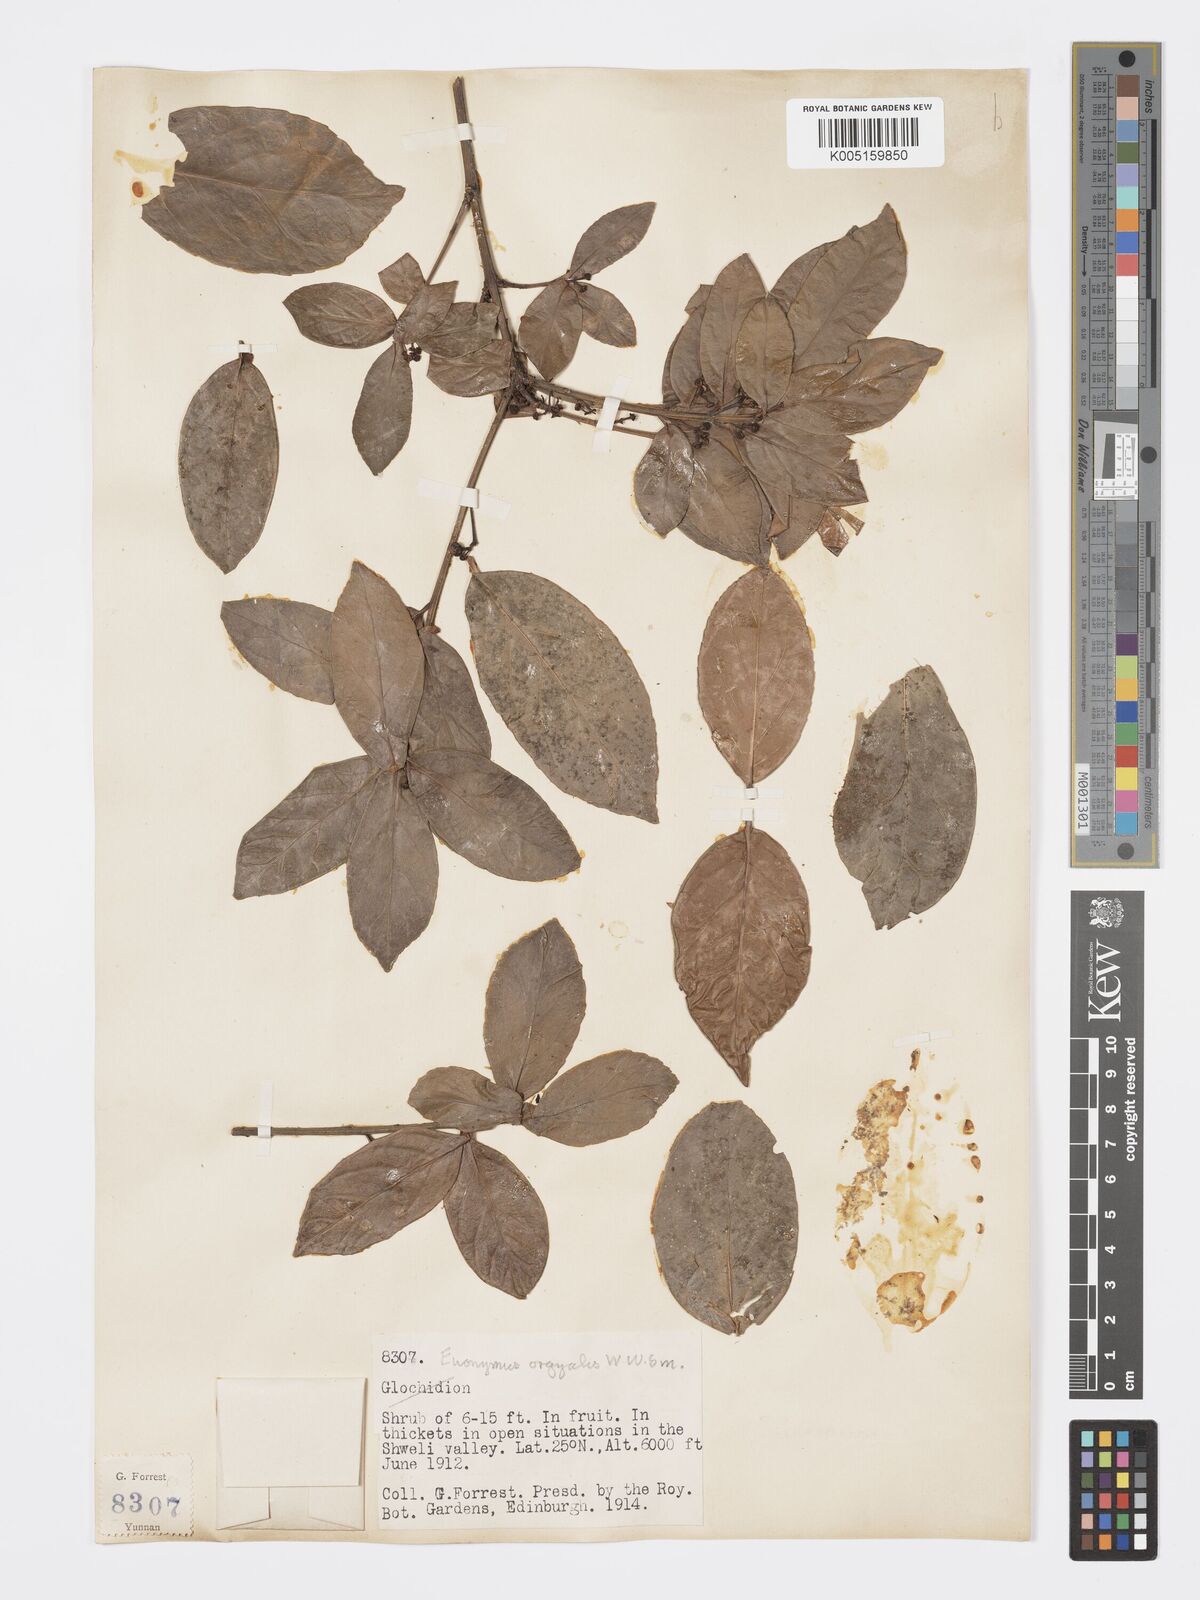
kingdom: Plantae
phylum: Tracheophyta
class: Magnoliopsida
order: Celastrales
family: Celastraceae
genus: Euonymus
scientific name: Euonymus bockii
